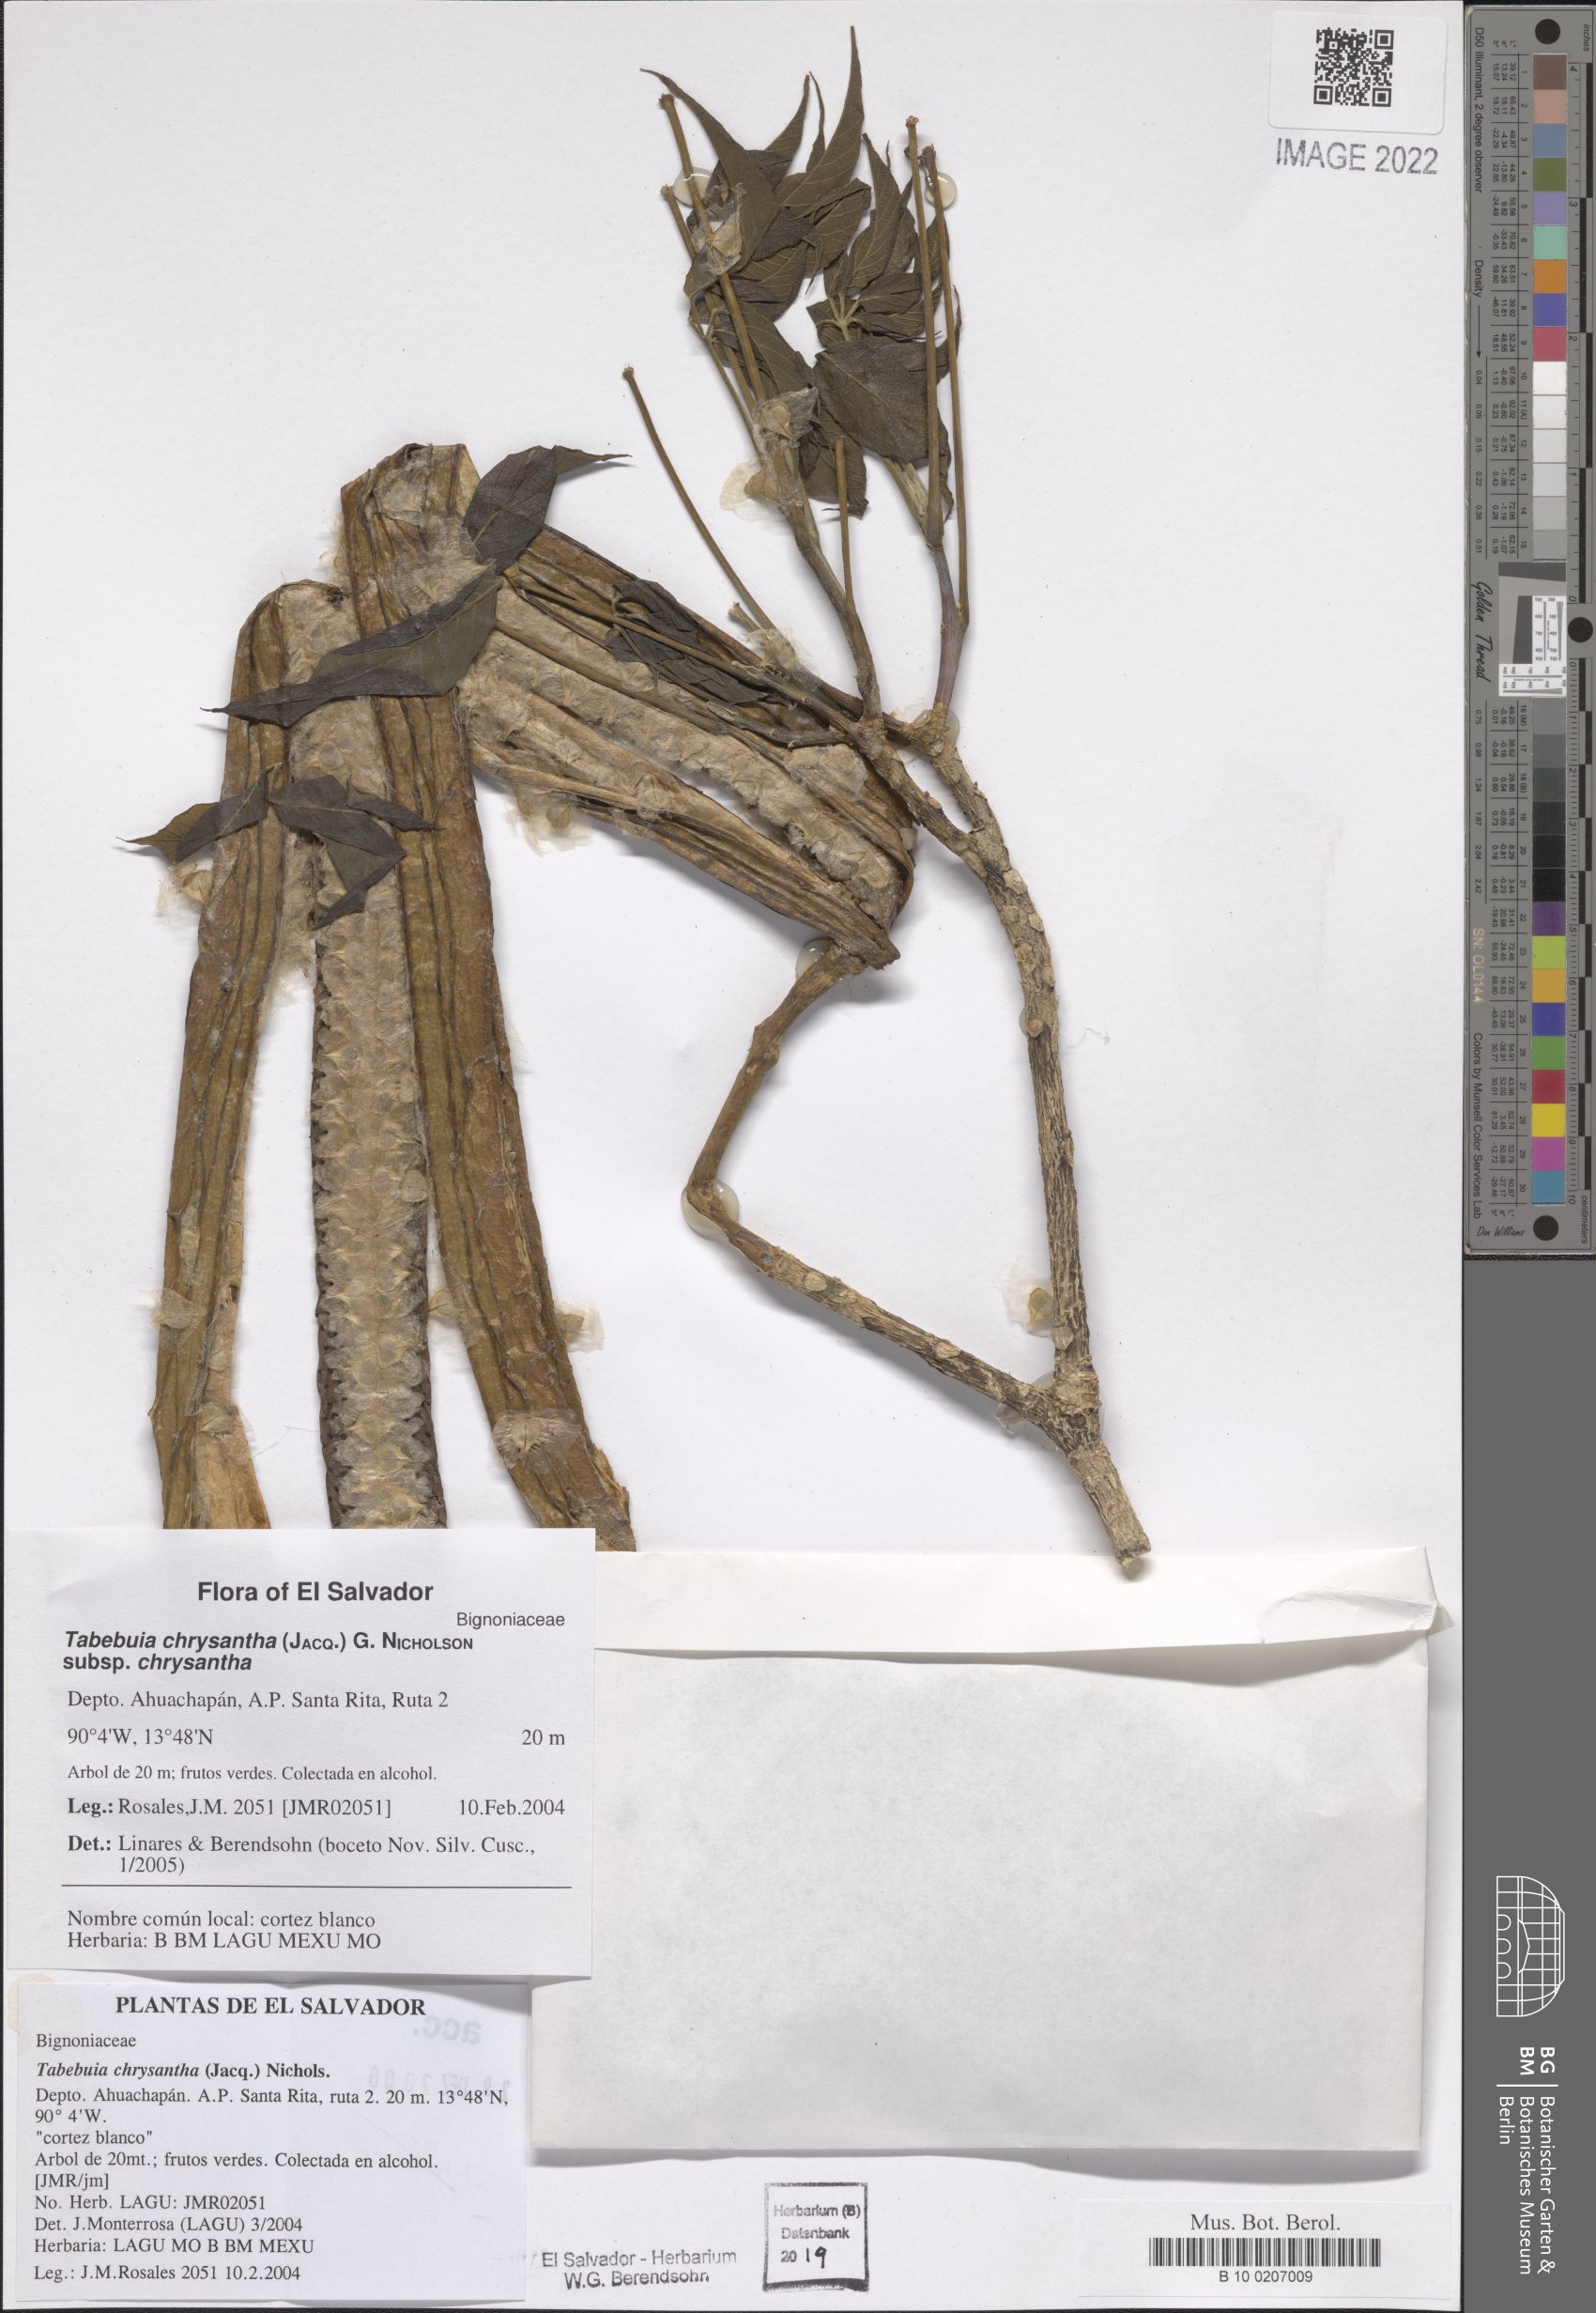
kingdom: Plantae
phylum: Tracheophyta
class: Magnoliopsida
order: Lamiales
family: Bignoniaceae
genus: Handroanthus
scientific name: Handroanthus chrysanthus
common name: Trumpet trees
